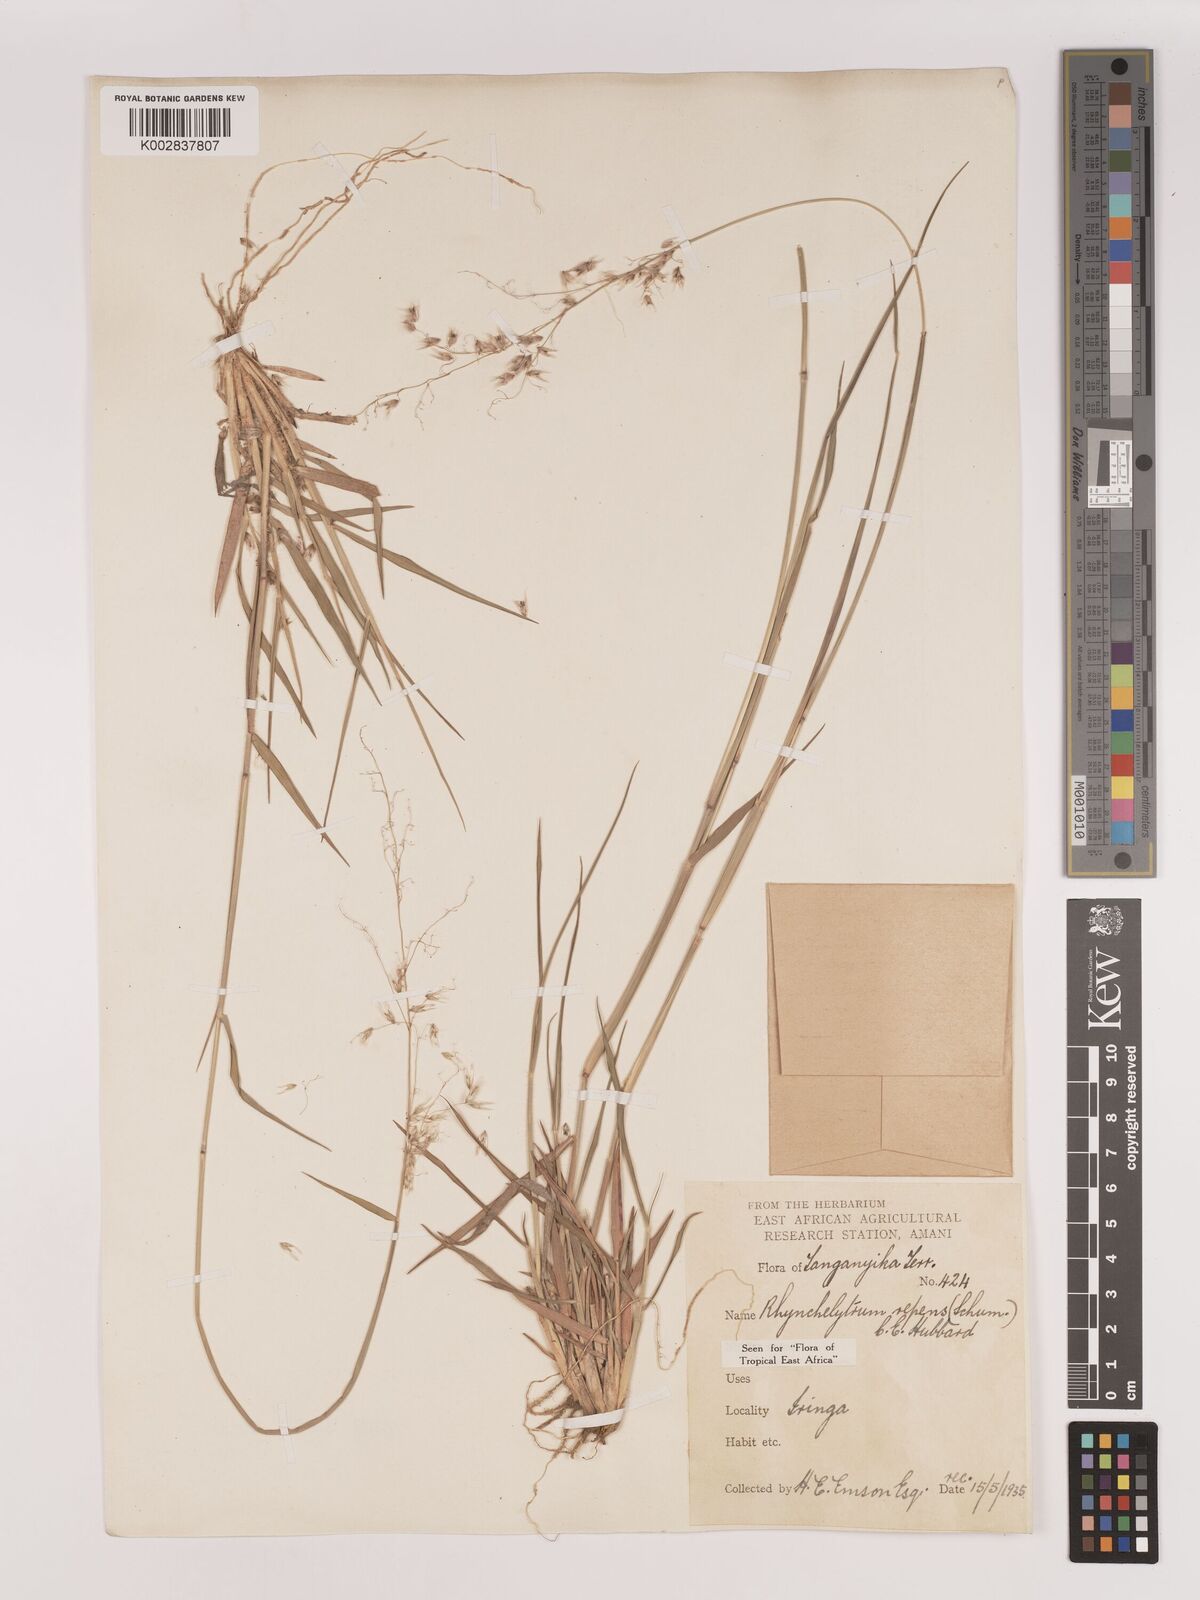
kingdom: Plantae
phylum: Tracheophyta
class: Liliopsida
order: Poales
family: Poaceae
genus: Melinis
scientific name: Melinis repens
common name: Rose natal grass
